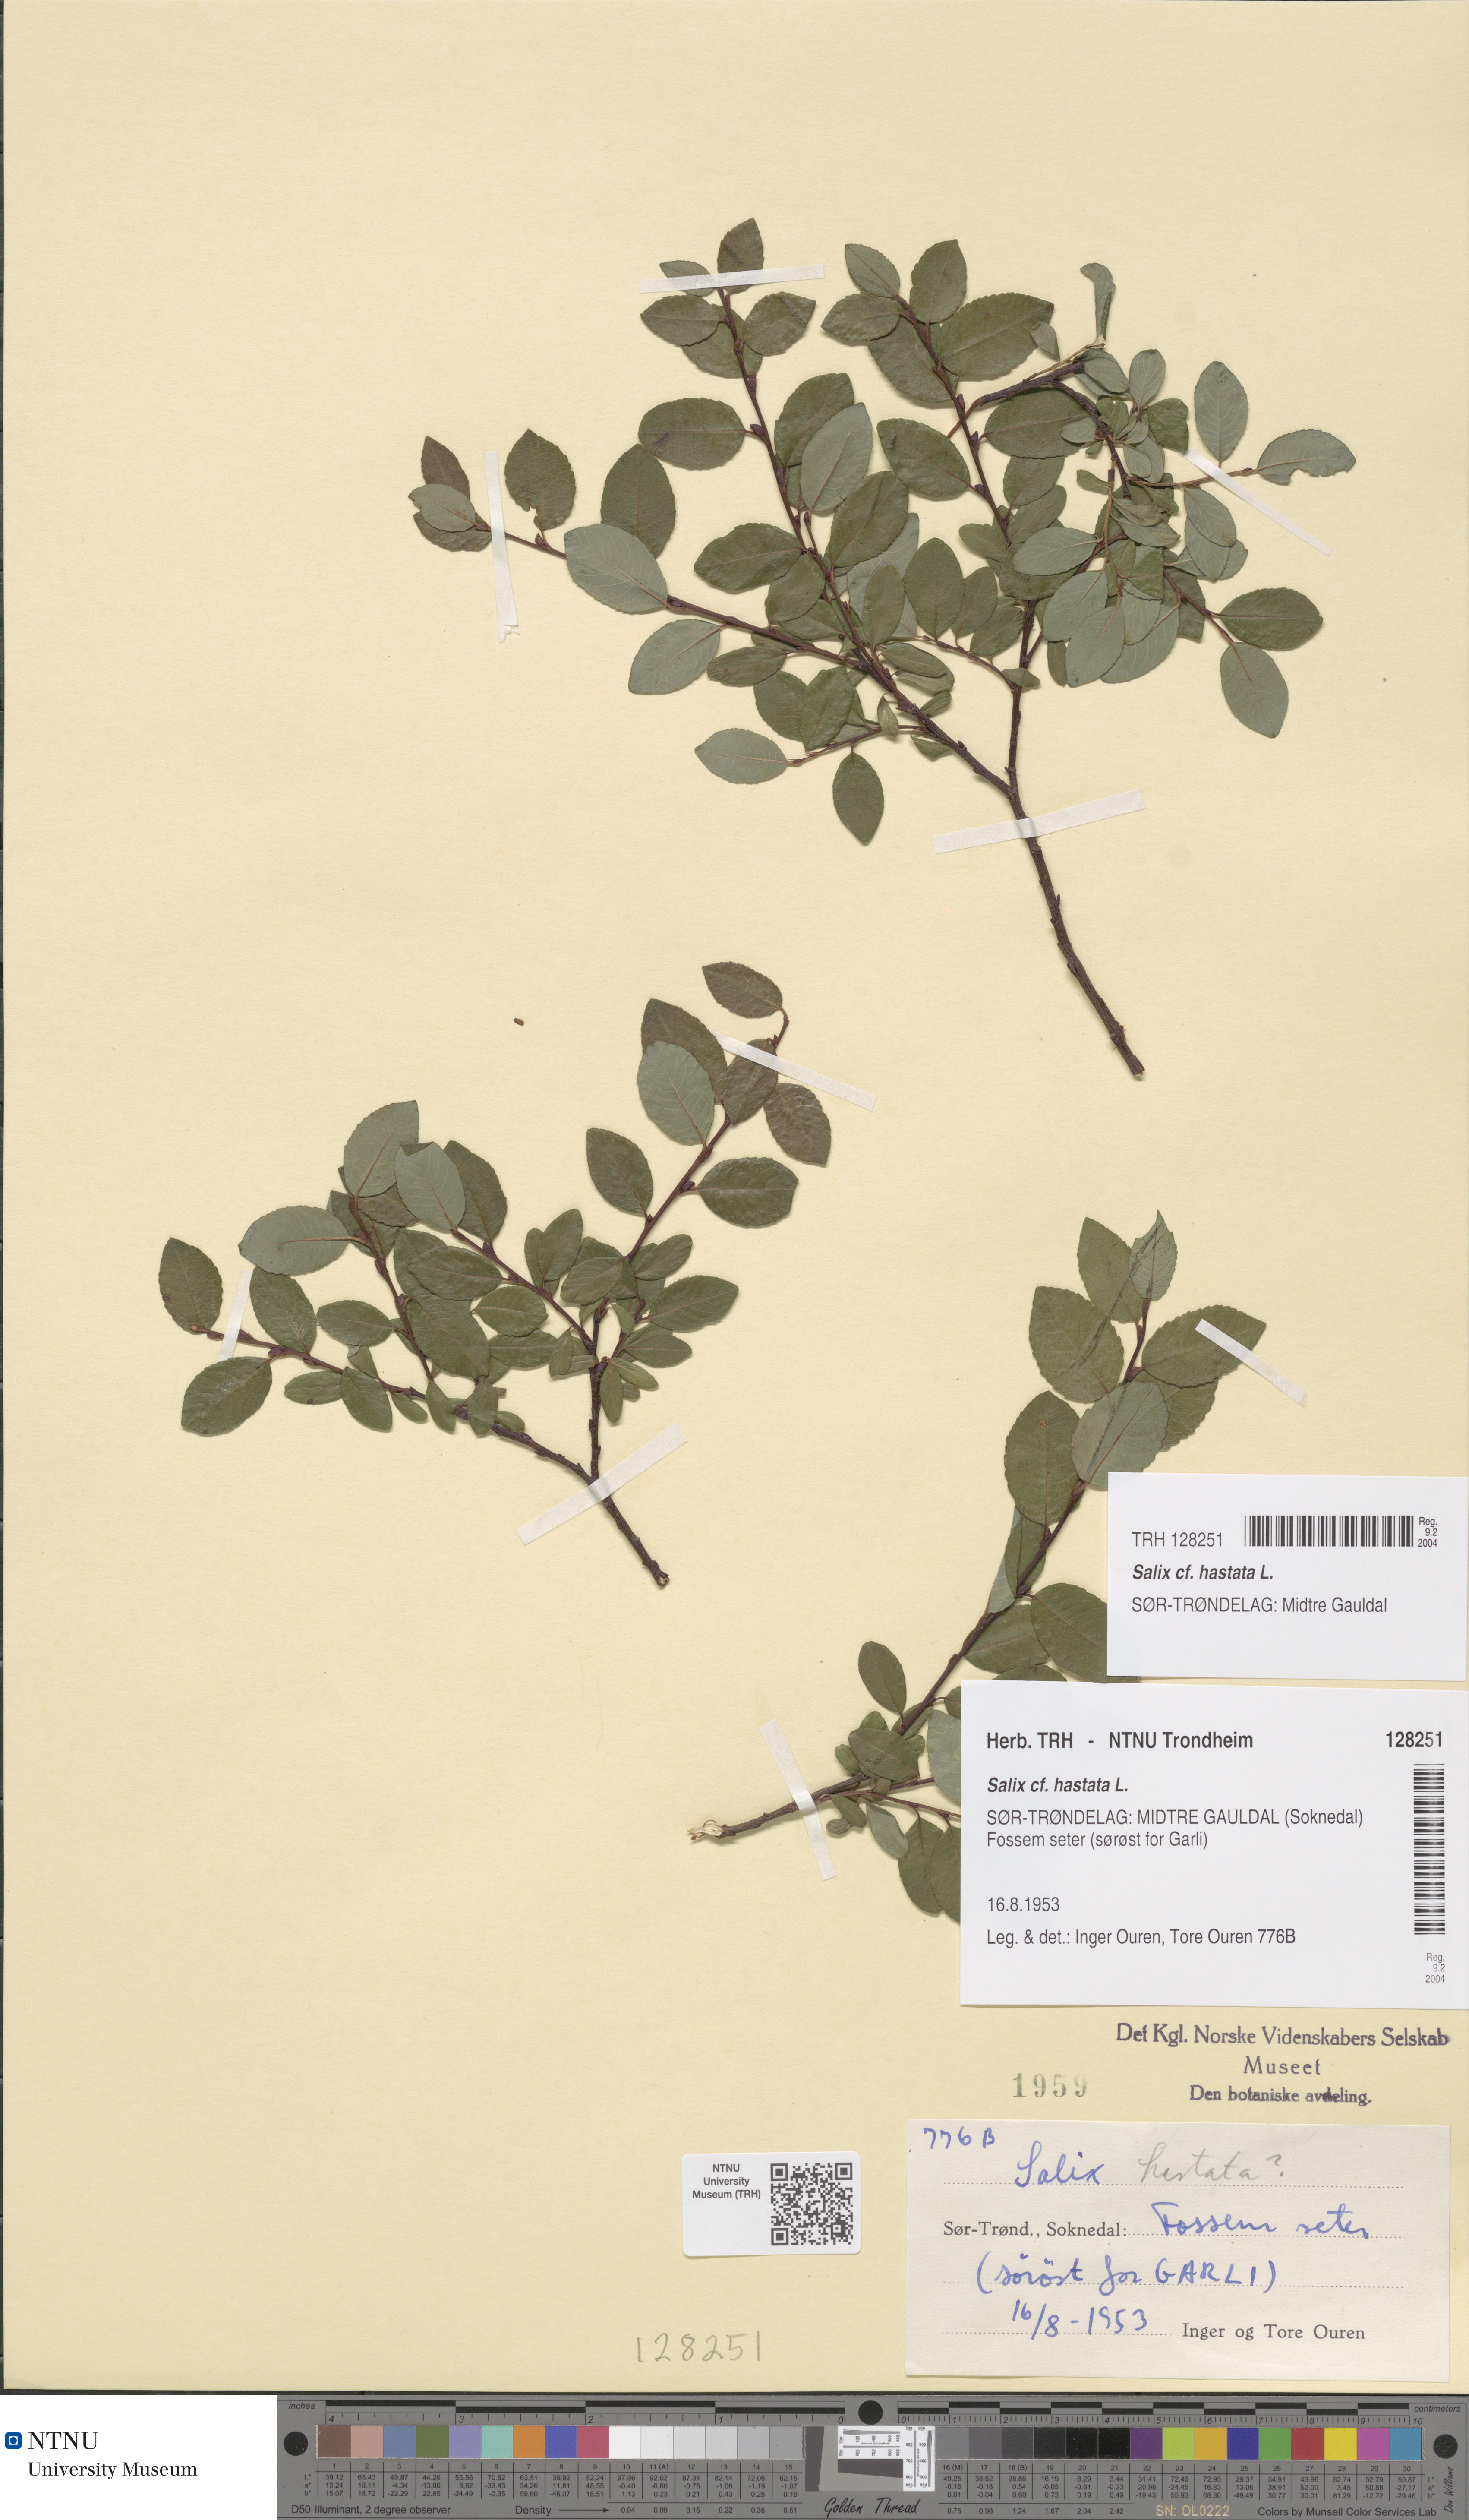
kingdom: Plantae
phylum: Tracheophyta
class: Magnoliopsida
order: Malpighiales
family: Salicaceae
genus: Salix
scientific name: Salix hastata
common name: Halberd willow
